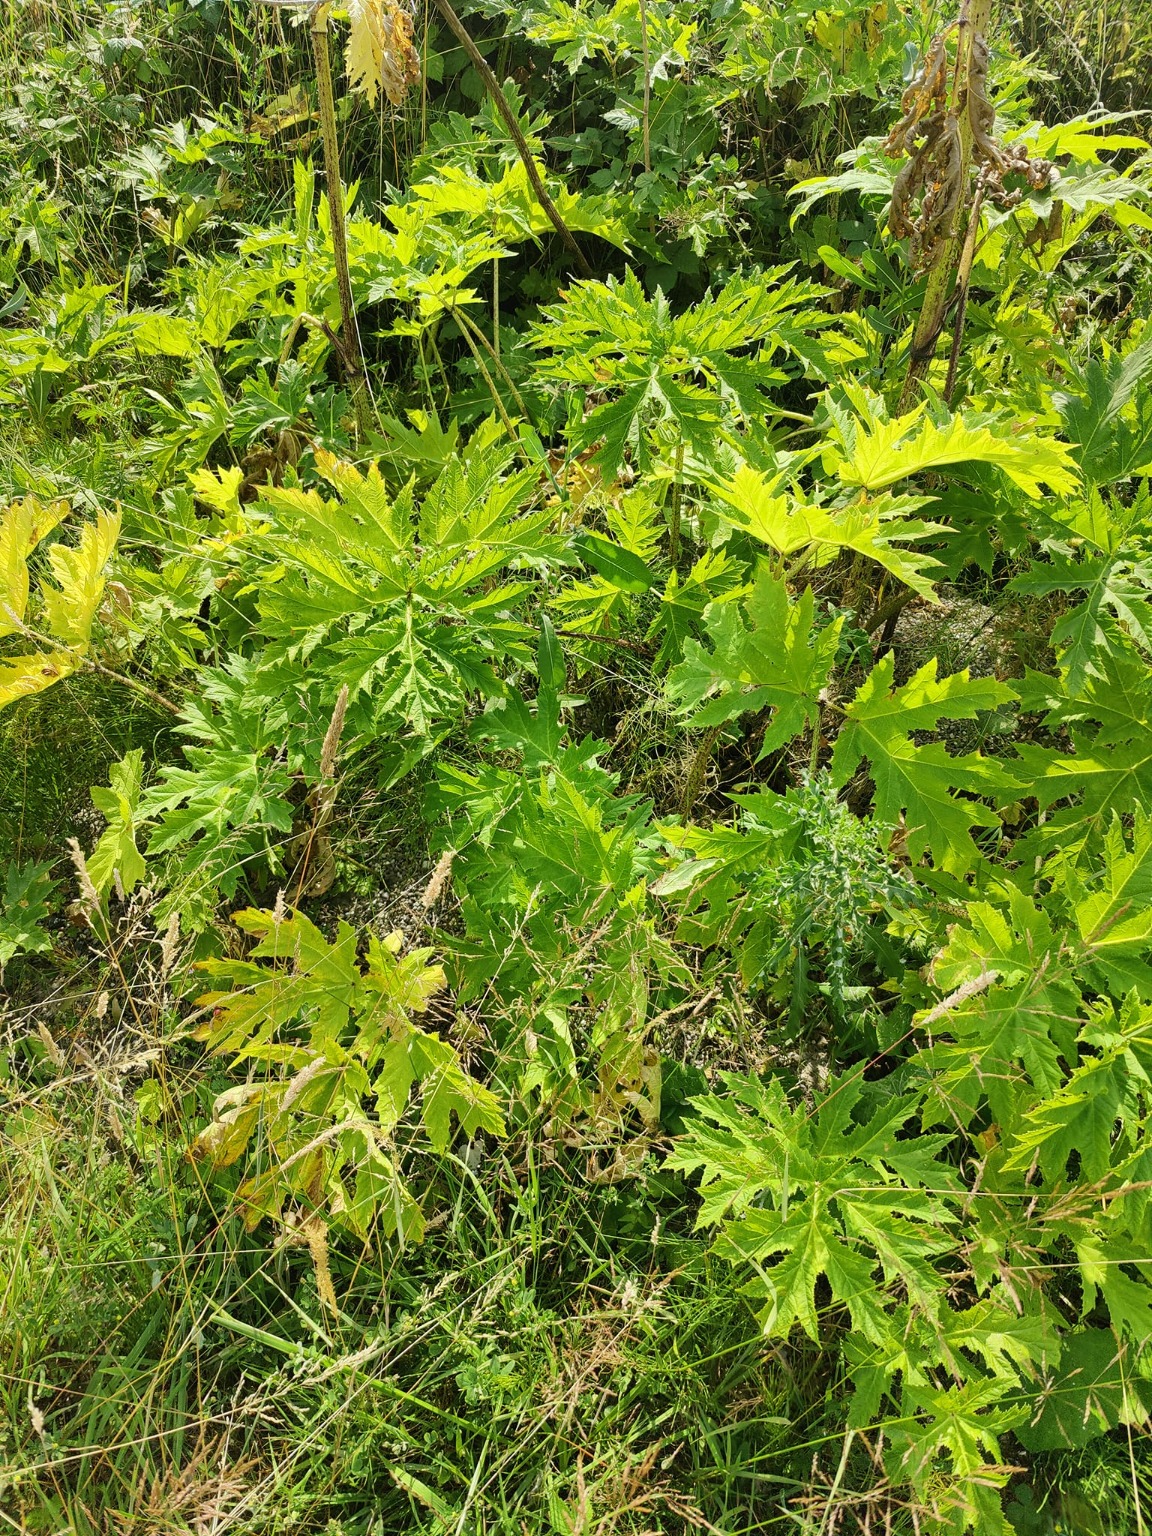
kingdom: Plantae
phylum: Tracheophyta
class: Magnoliopsida
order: Apiales
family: Apiaceae
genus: Heracleum
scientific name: Heracleum mantegazzianum
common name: Kæmpe-bjørneklo
